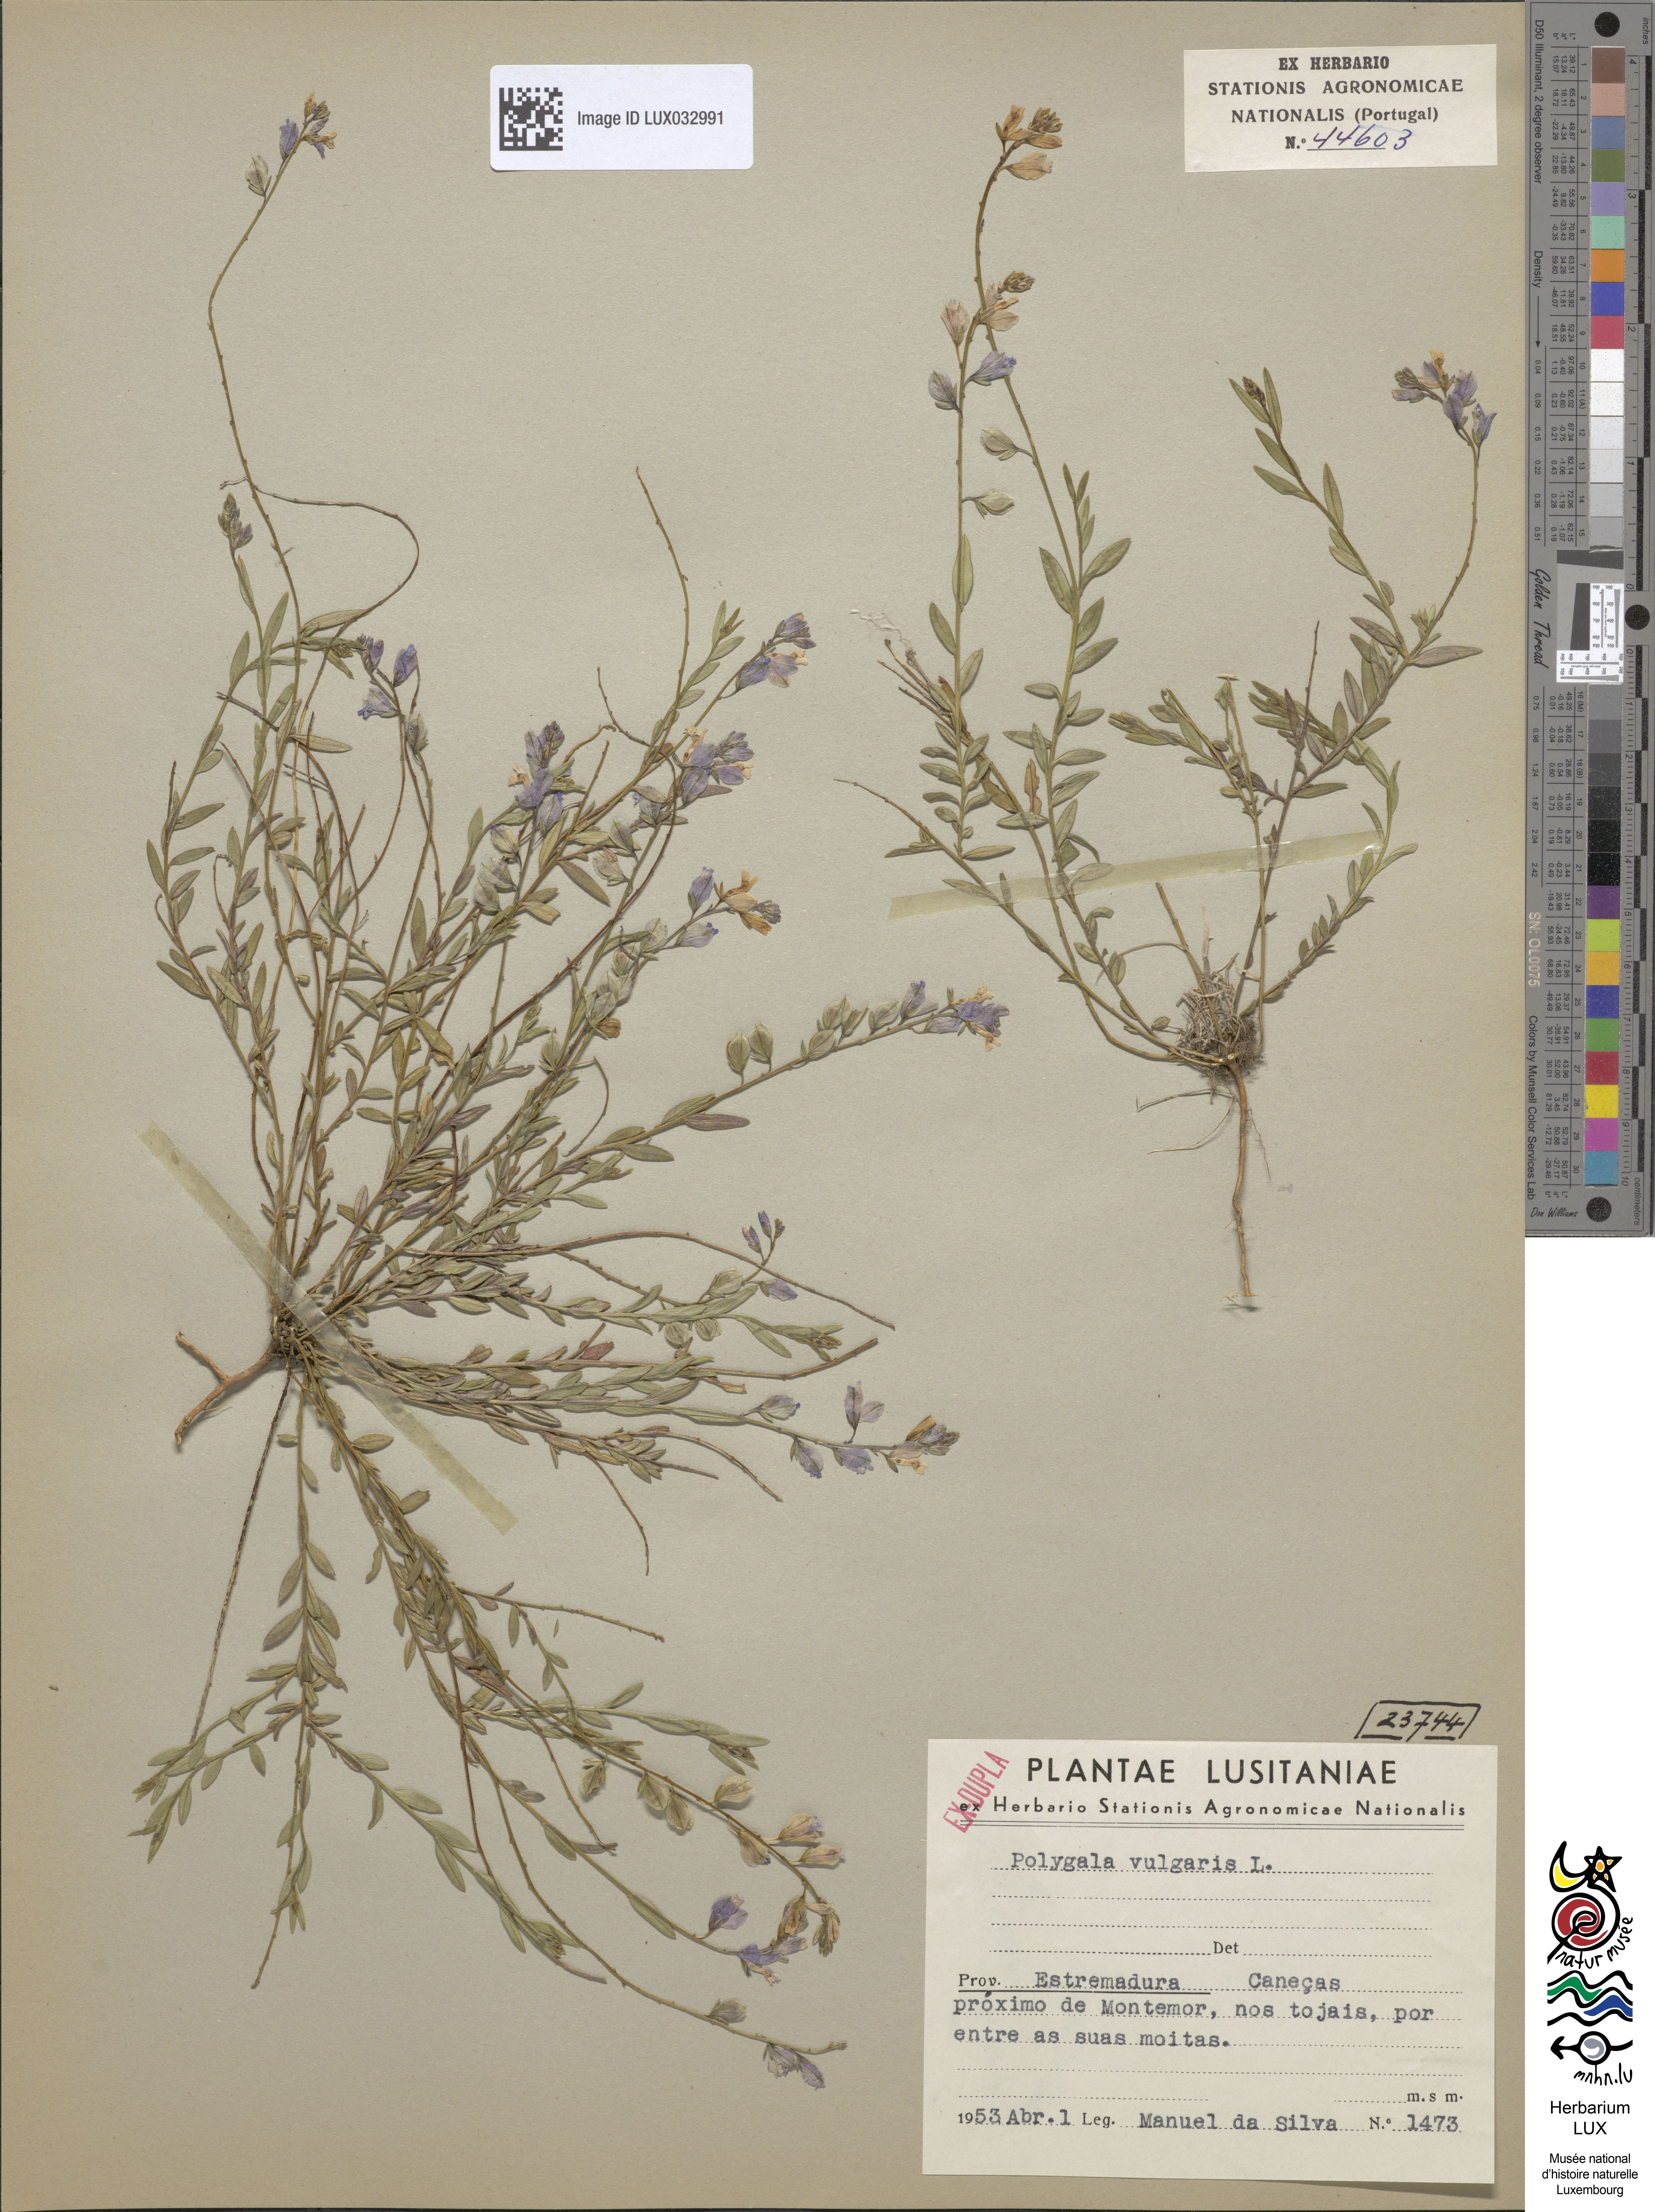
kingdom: Plantae
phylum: Tracheophyta
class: Magnoliopsida
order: Fabales
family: Polygalaceae
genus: Polygala
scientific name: Polygala vulgaris
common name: Common milkwort
